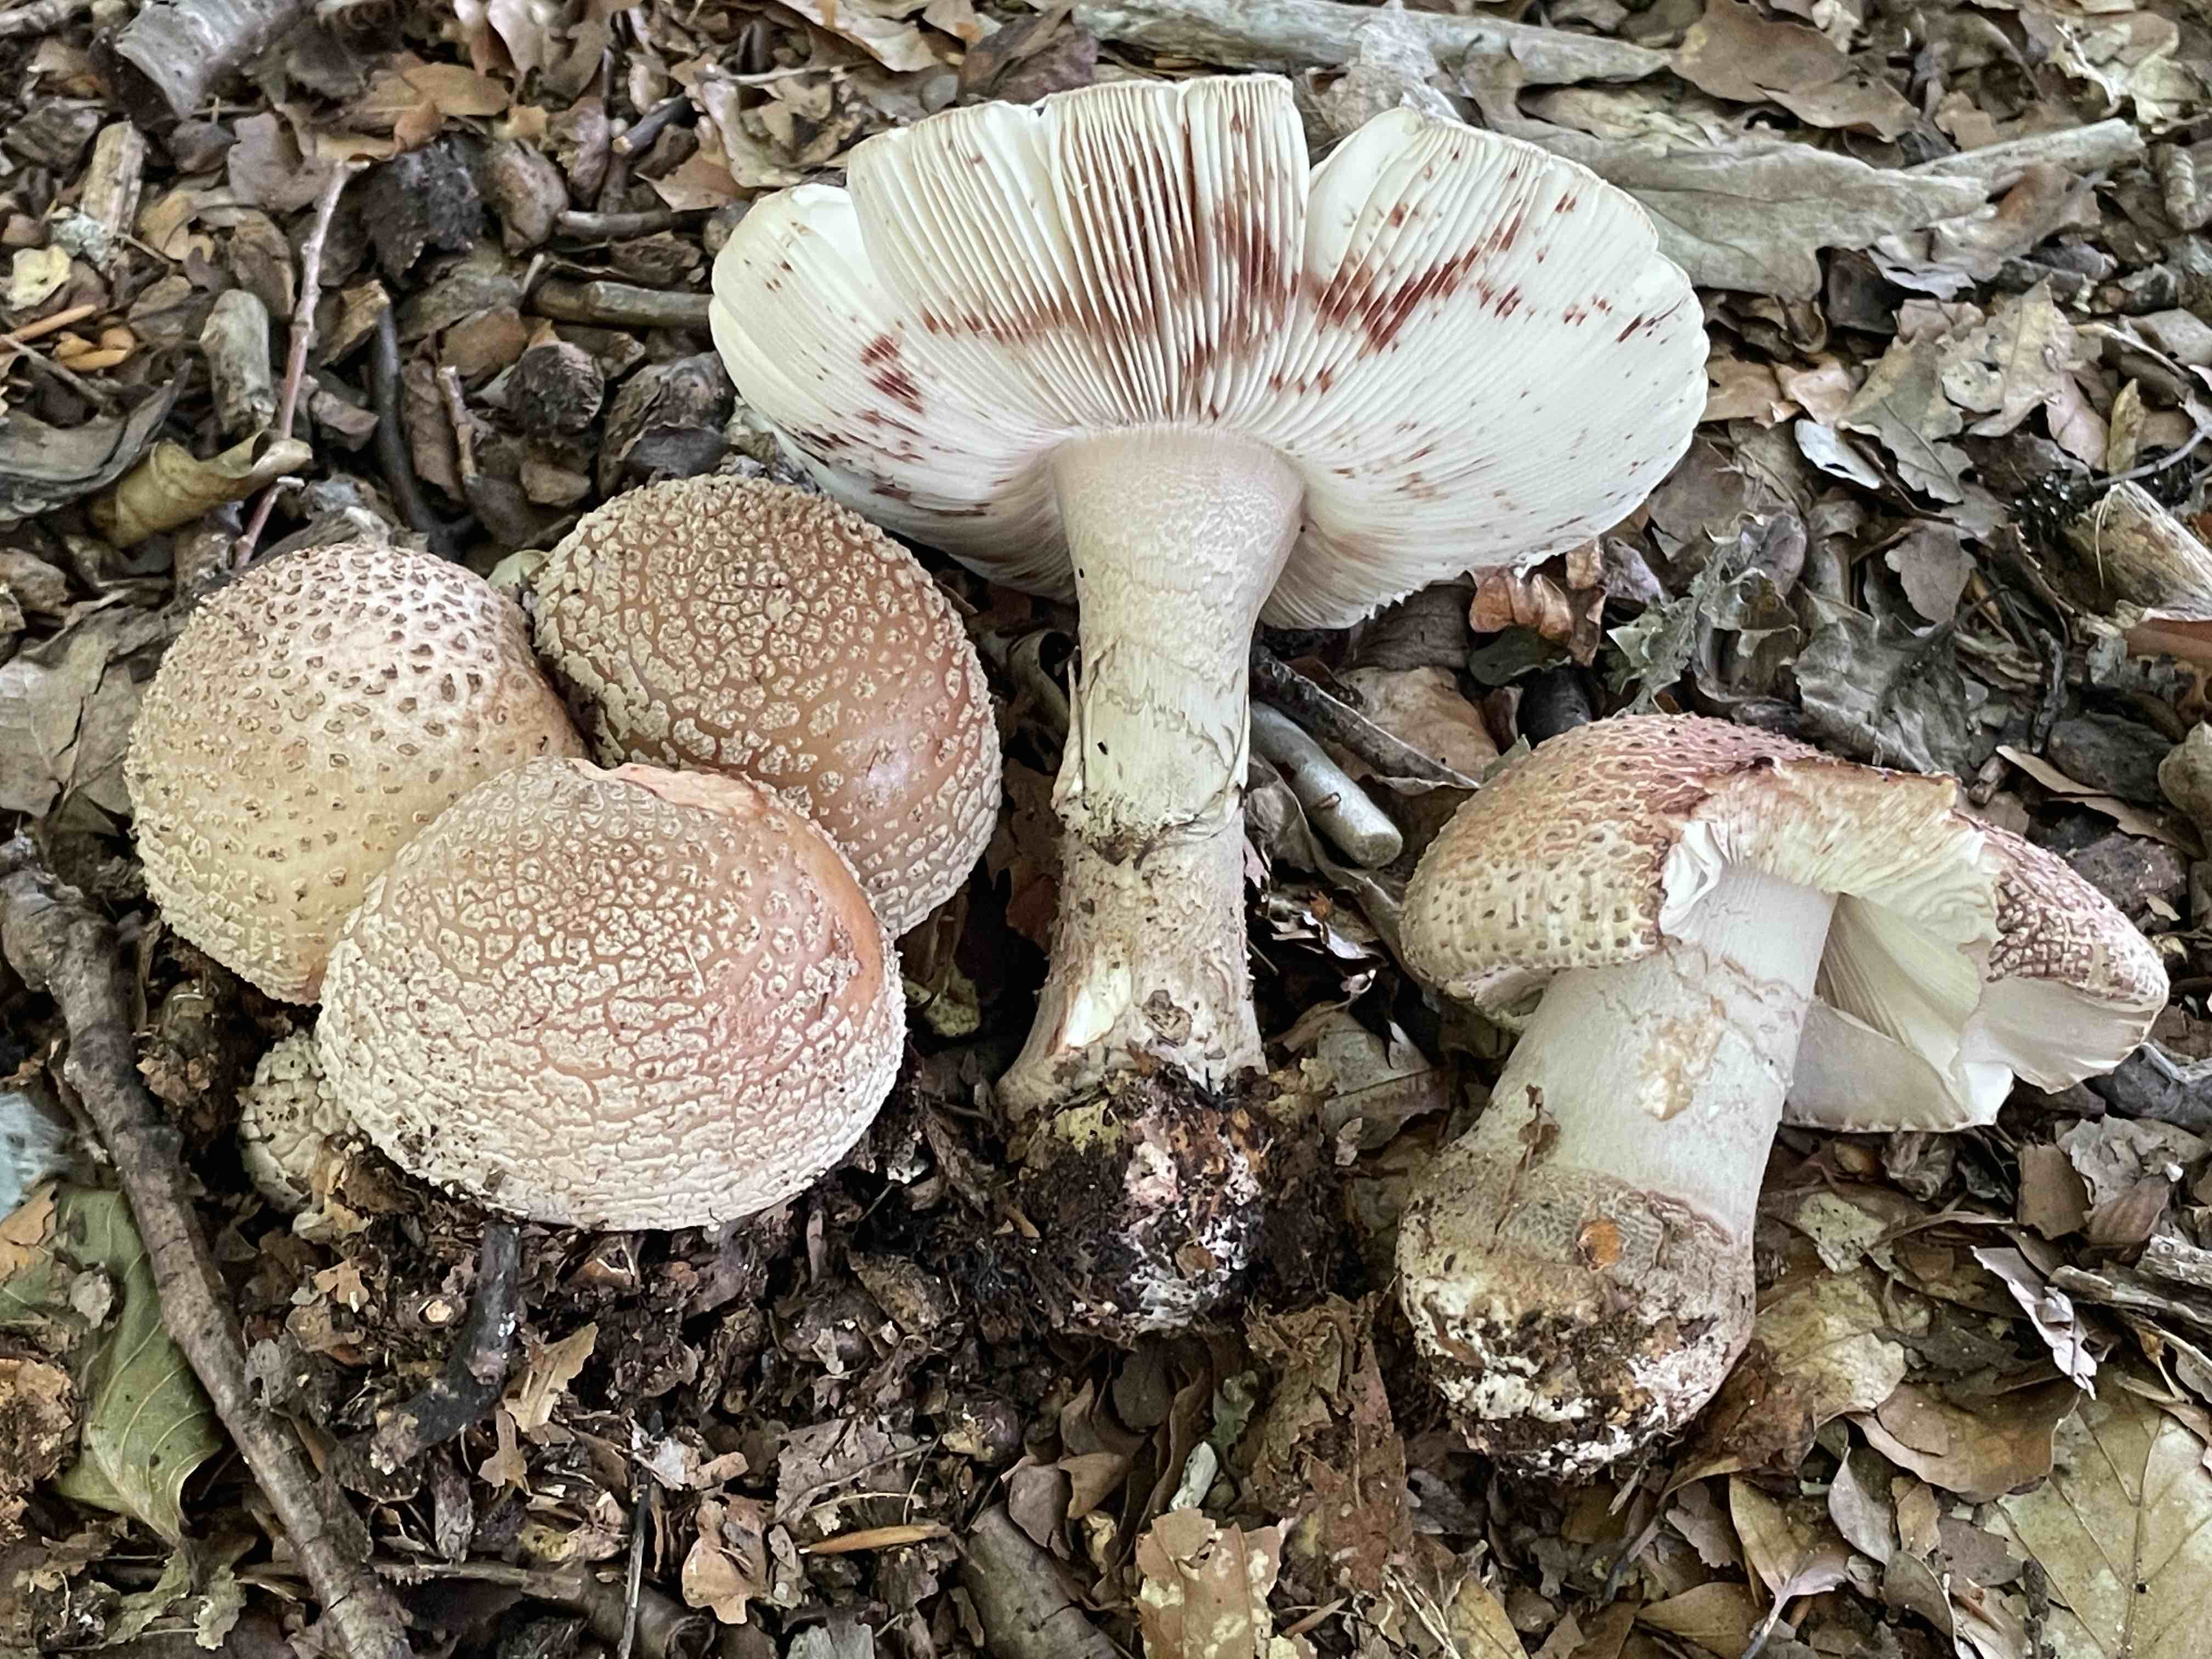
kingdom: Fungi
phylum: Basidiomycota
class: Agaricomycetes
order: Agaricales
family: Amanitaceae
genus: Amanita
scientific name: Amanita rubescens
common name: rødmende fluesvamp
